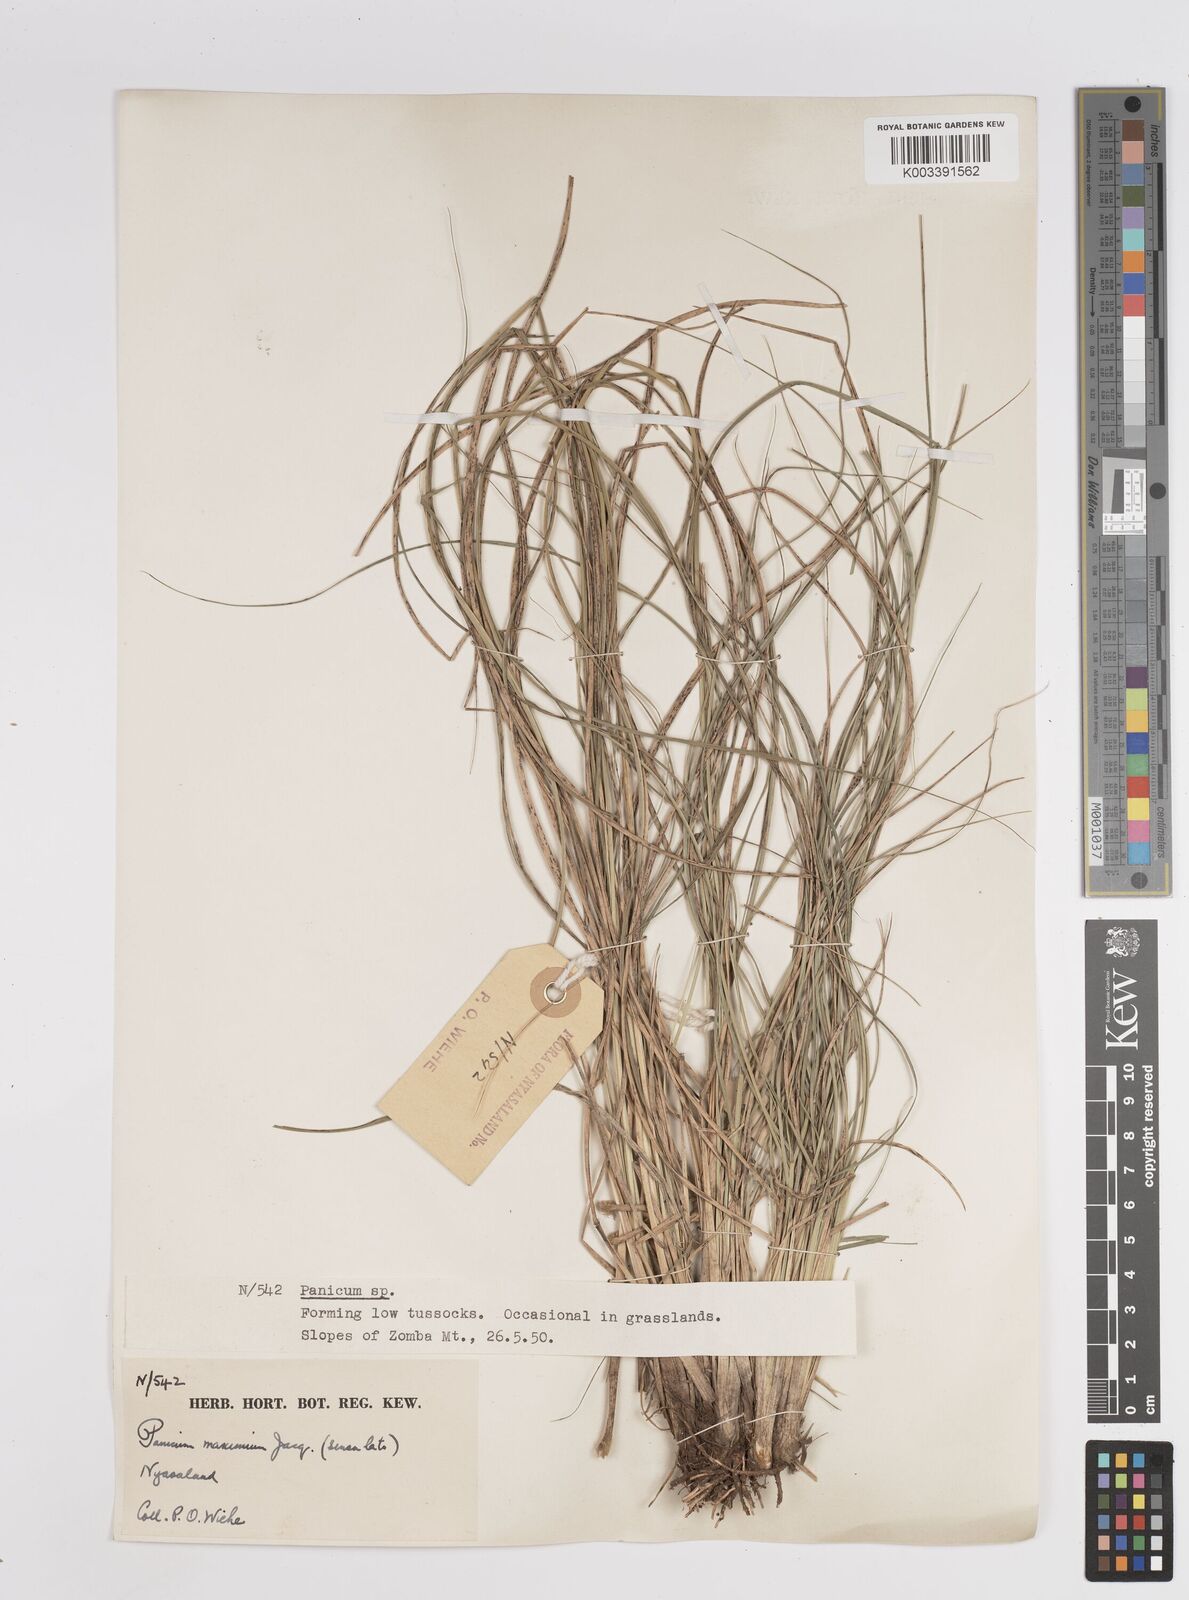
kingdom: Plantae
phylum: Tracheophyta
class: Liliopsida
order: Poales
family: Poaceae
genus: Megathyrsus
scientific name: Megathyrsus maximus
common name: Guineagrass
